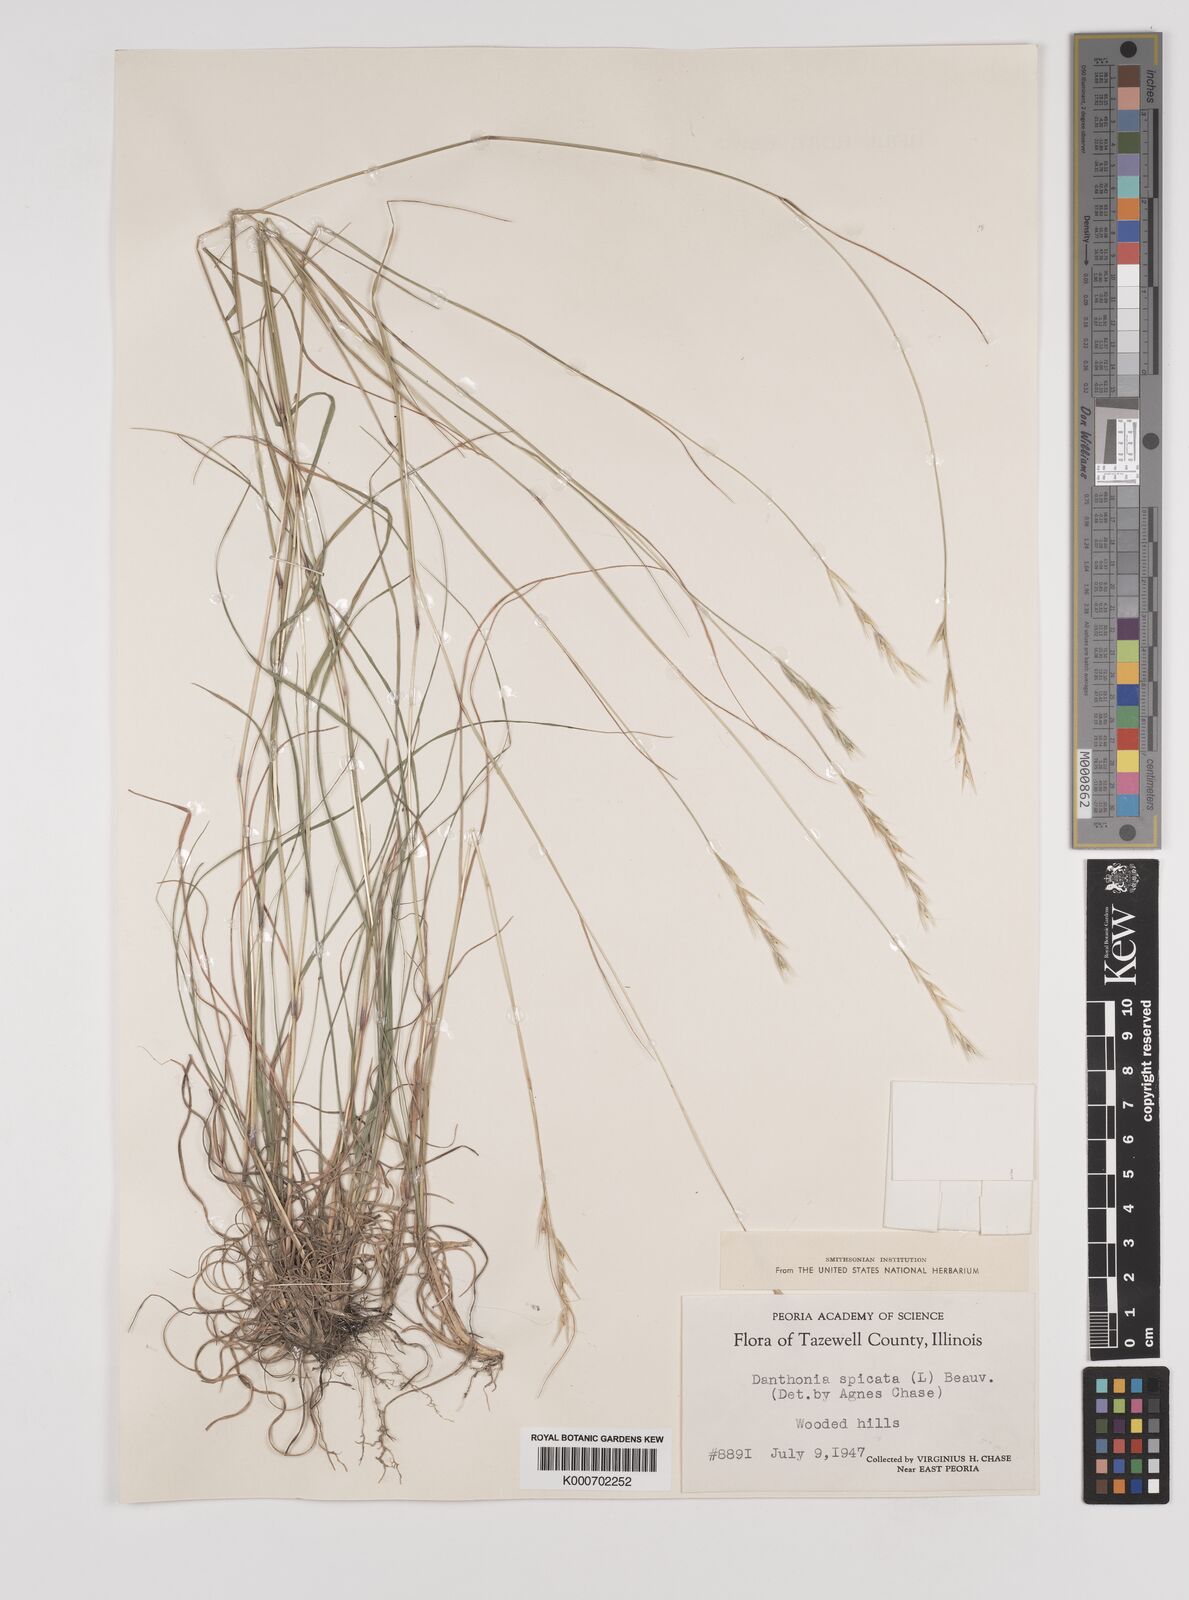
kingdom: Plantae
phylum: Tracheophyta
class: Liliopsida
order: Poales
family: Poaceae
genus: Danthonia
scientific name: Danthonia spicata
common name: Common wild oatgrass
